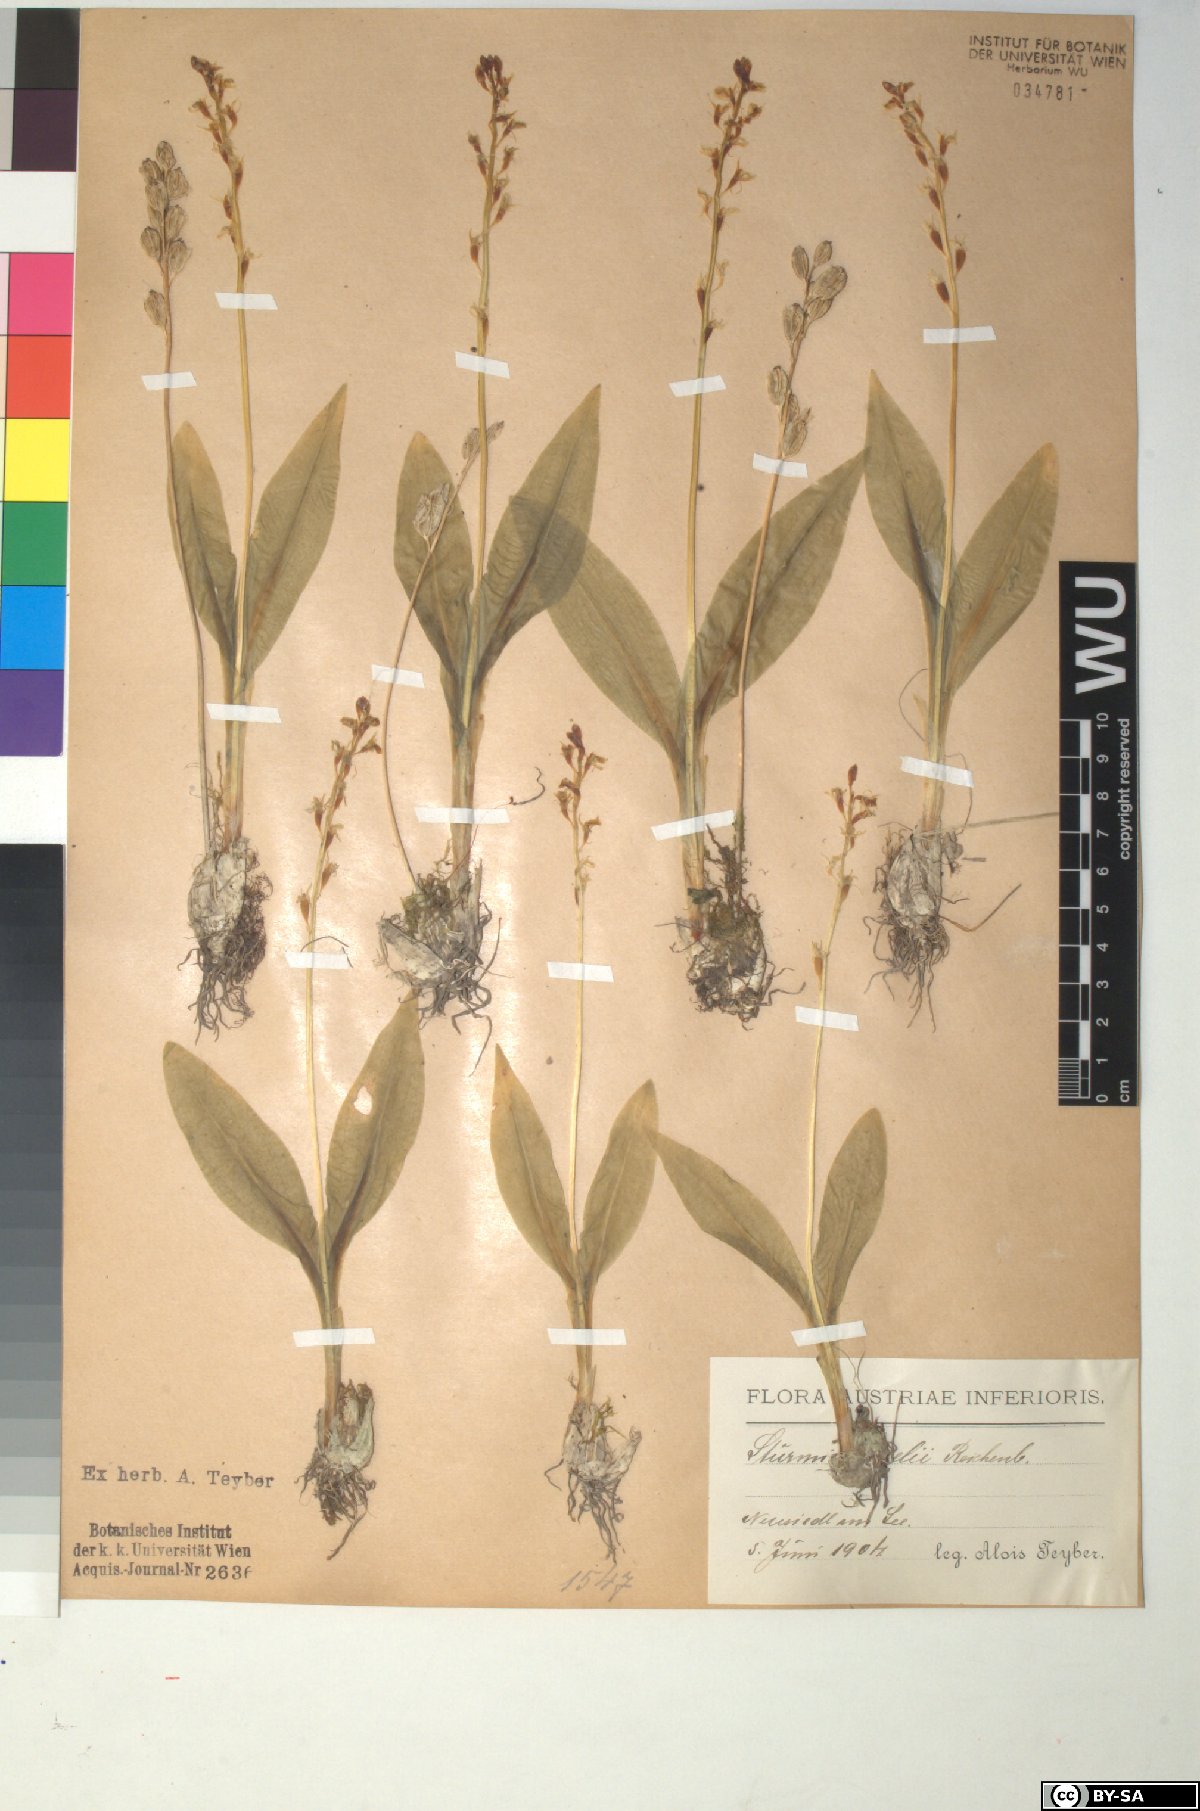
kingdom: Animalia
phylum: Arthropoda
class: Insecta
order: Coleoptera
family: Curculionidae
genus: Liparis
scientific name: Liparis loeselii
